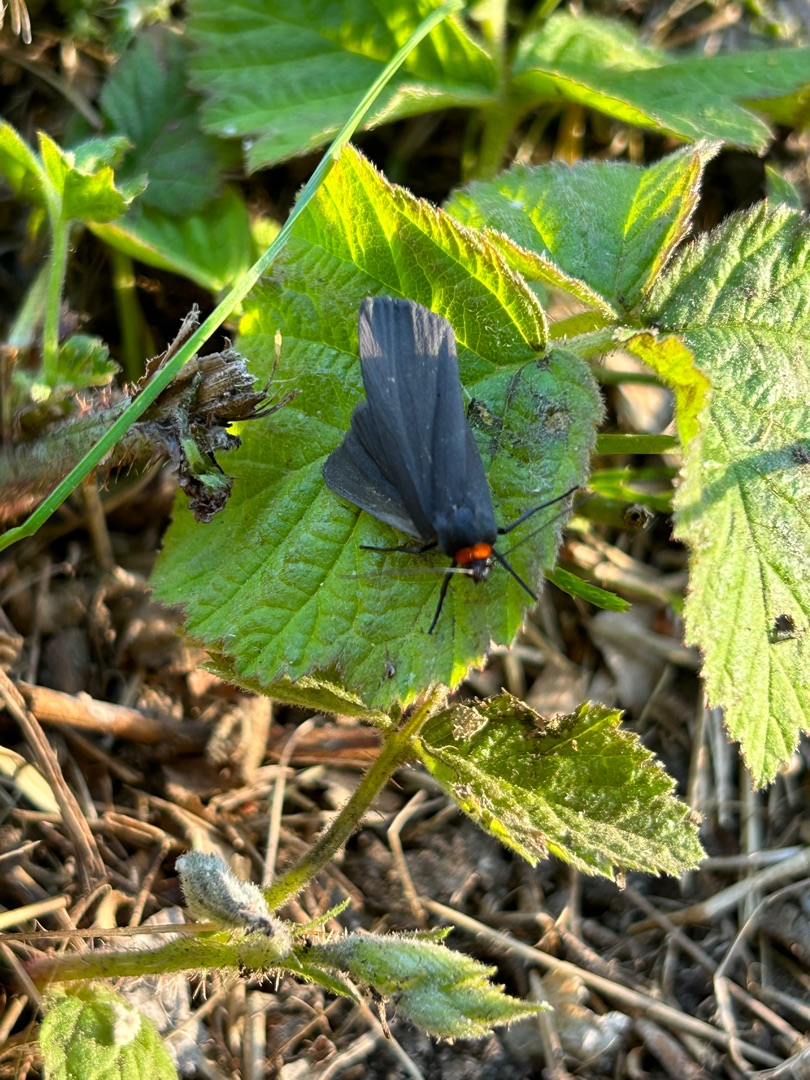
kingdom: Animalia
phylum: Arthropoda
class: Insecta
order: Lepidoptera
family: Erebidae
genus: Atolmis
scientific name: Atolmis rubricollis
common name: Blodnakke
